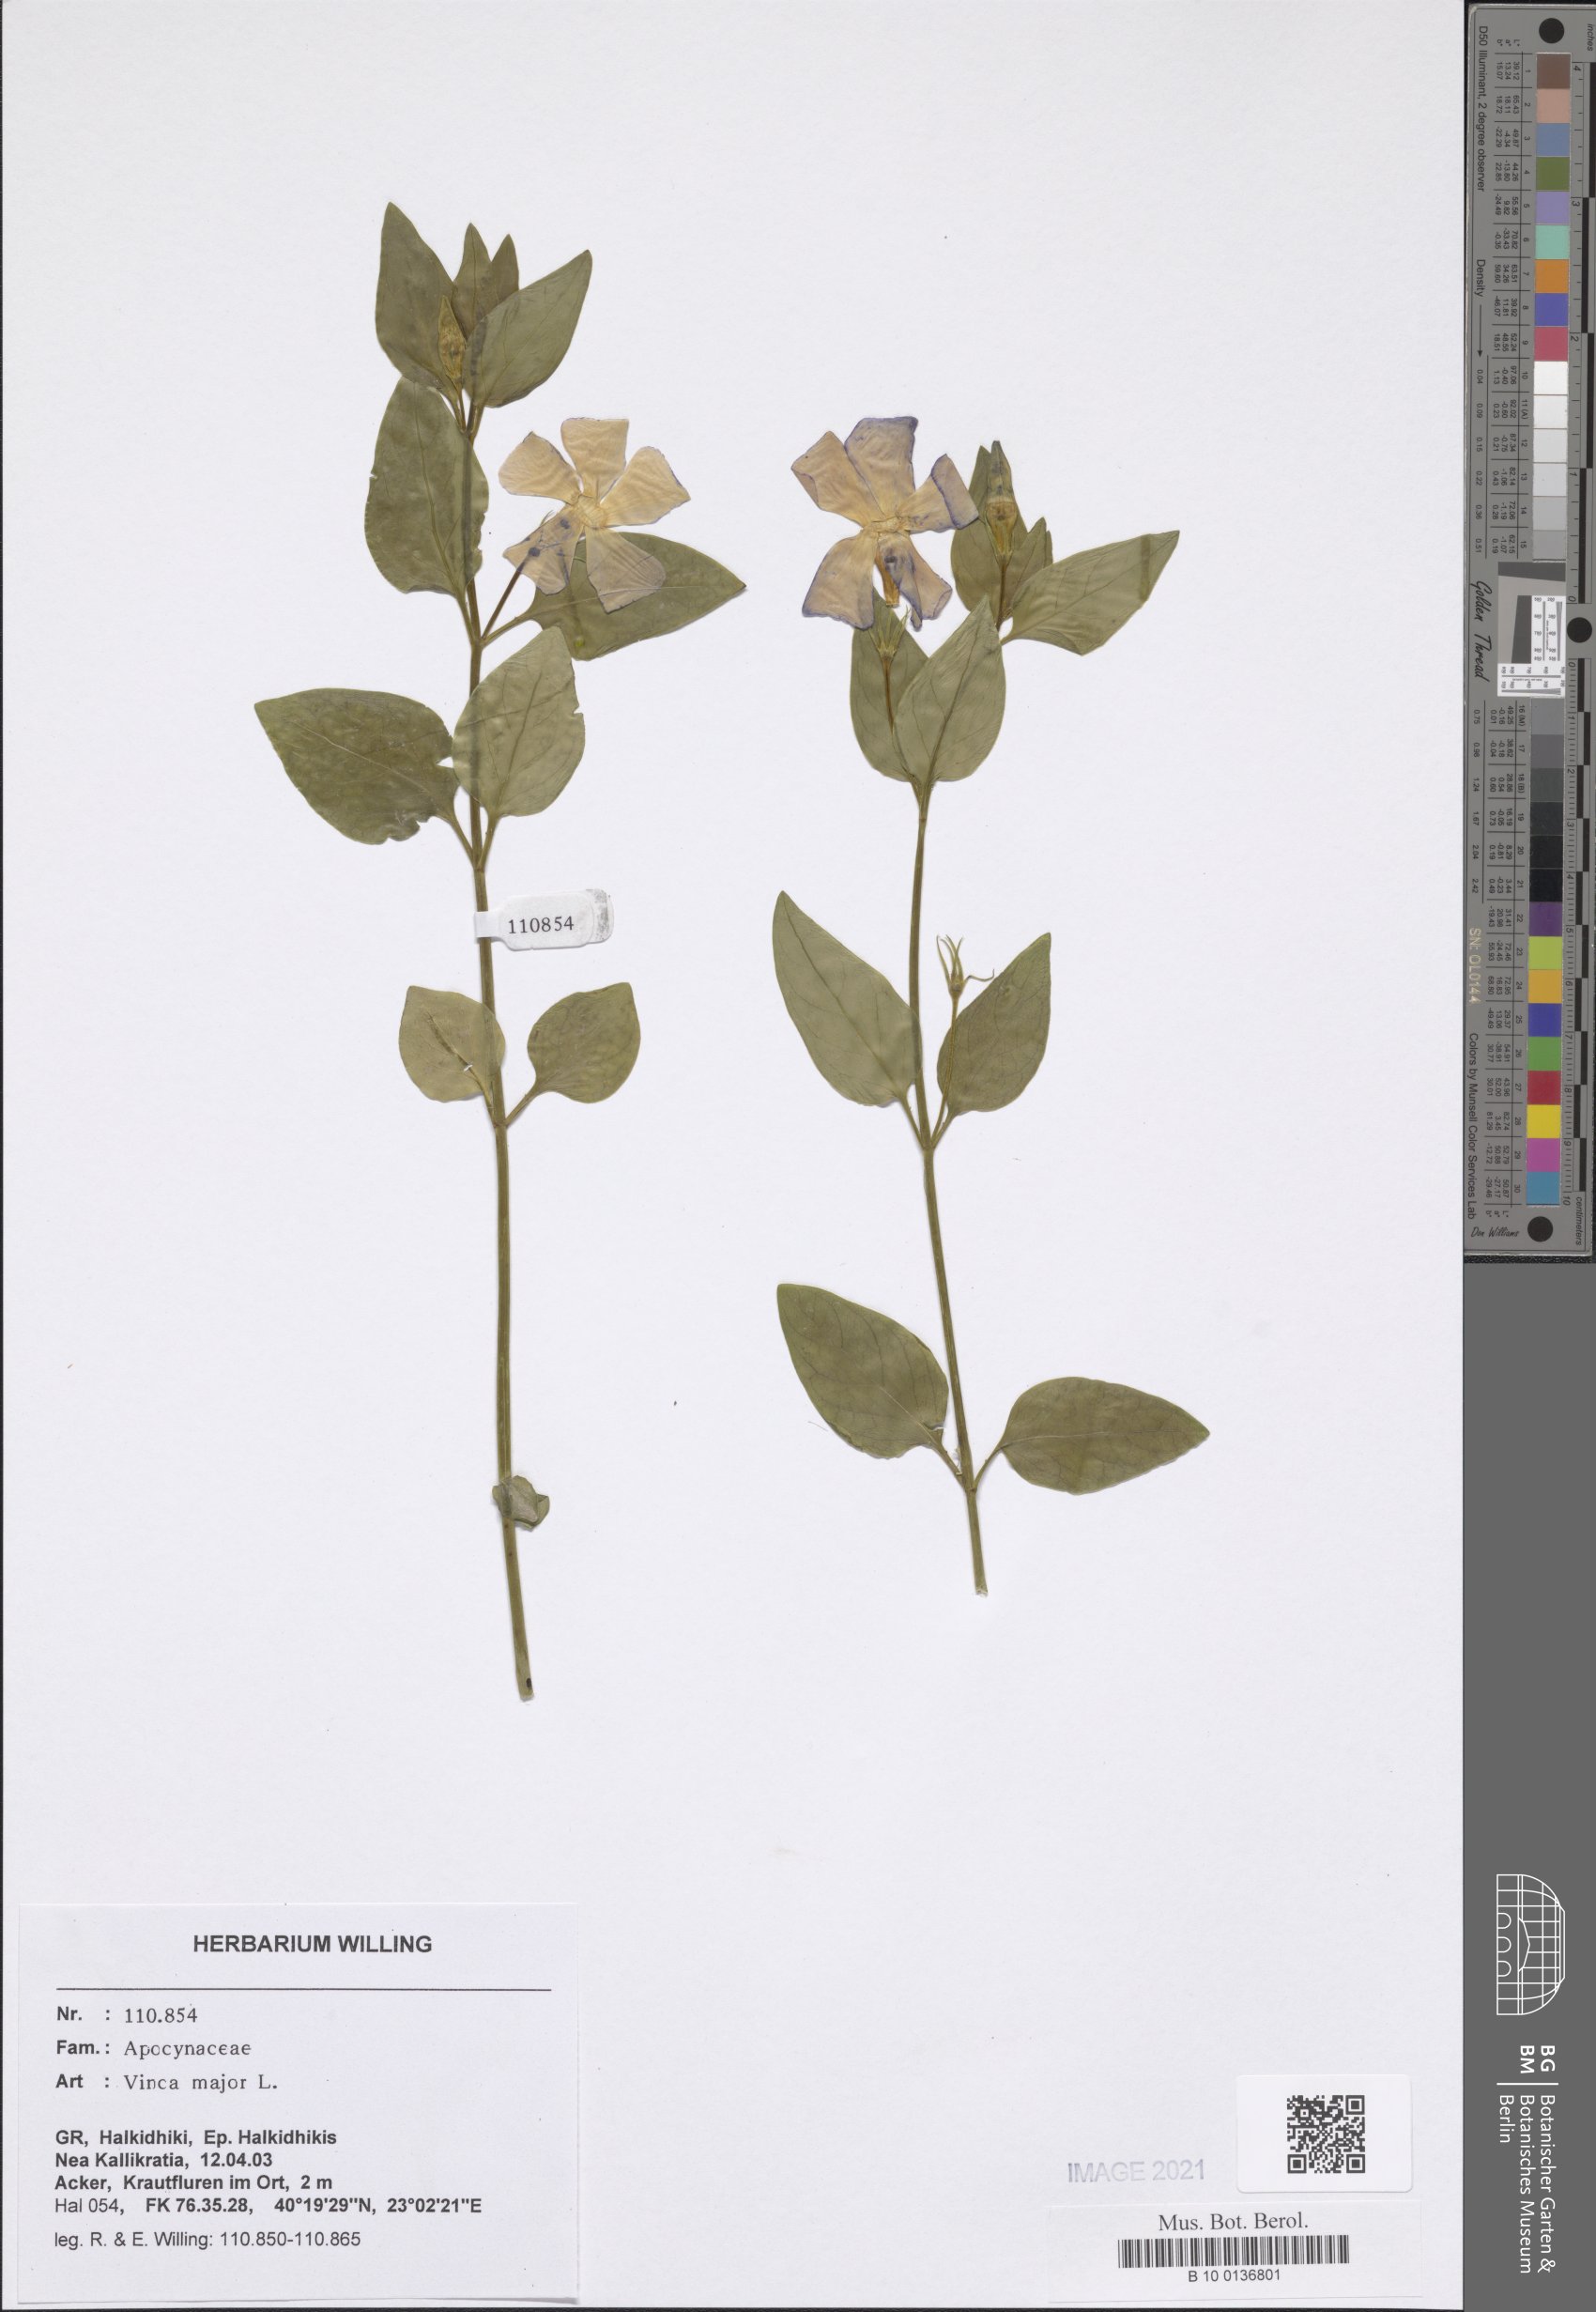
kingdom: Plantae
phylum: Tracheophyta
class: Magnoliopsida
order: Gentianales
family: Apocynaceae
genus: Vinca
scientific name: Vinca major
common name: Greater periwinkle
